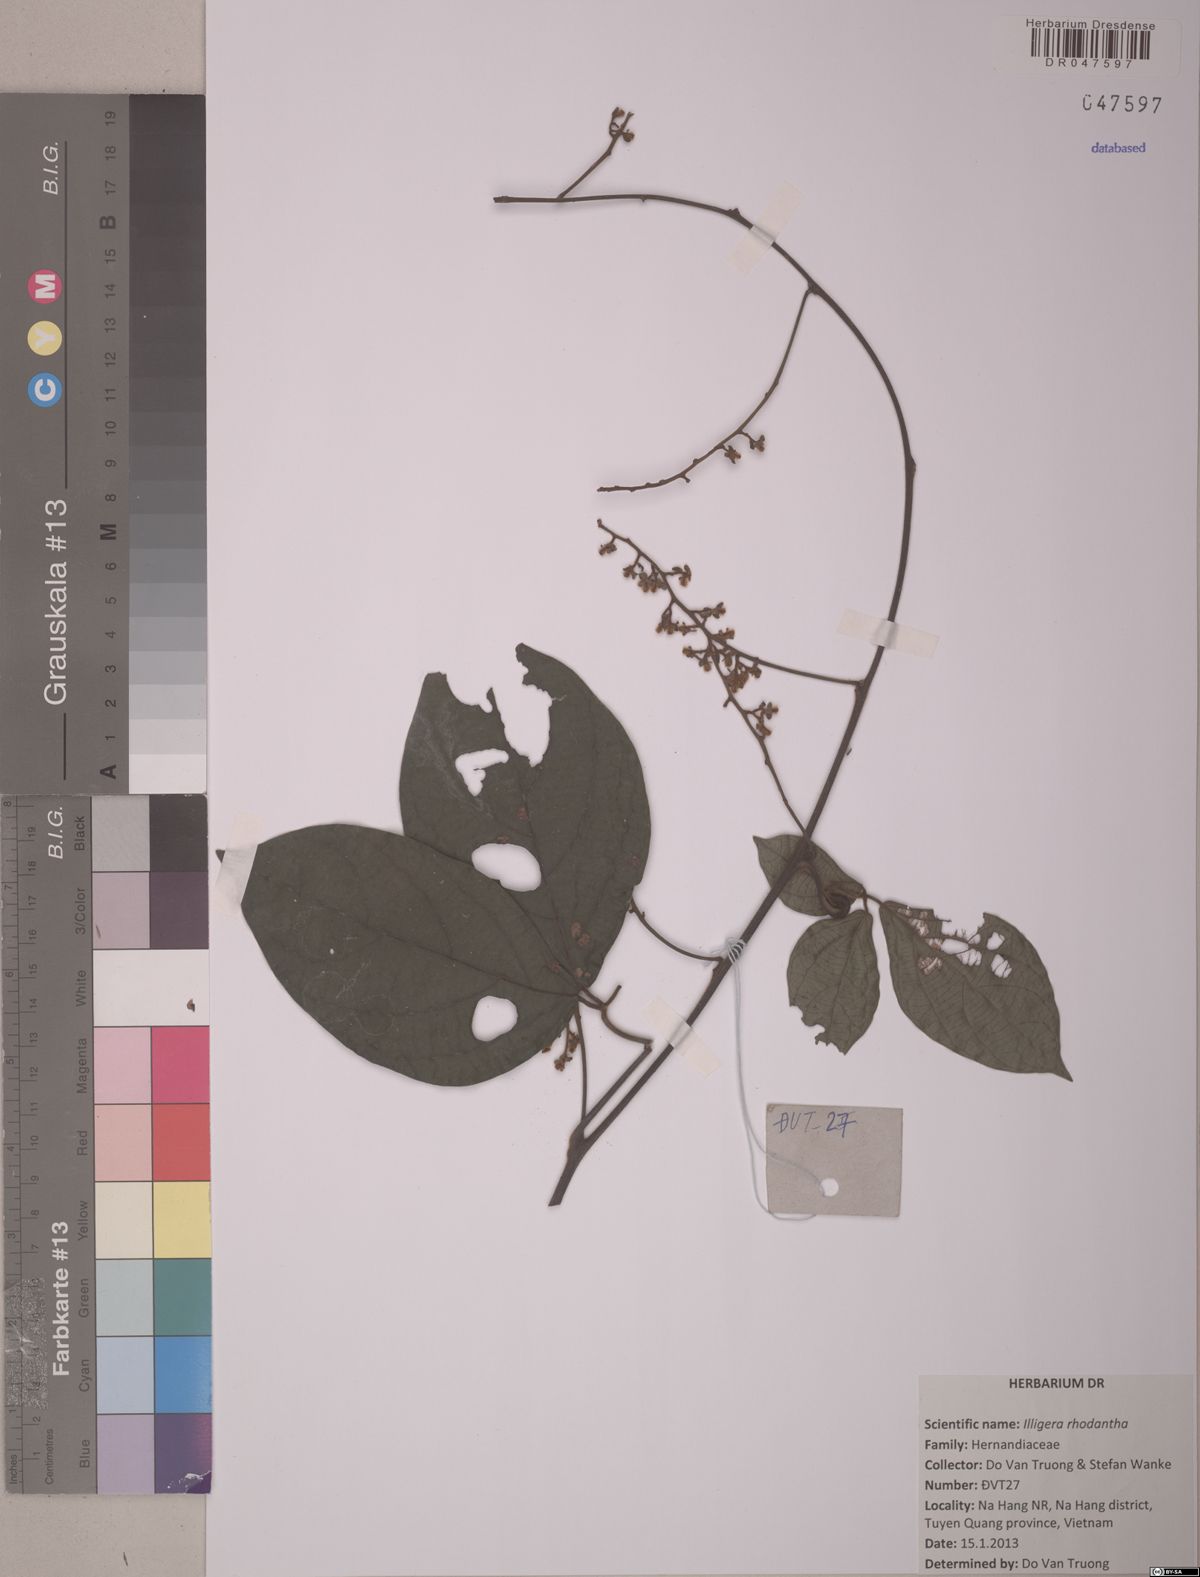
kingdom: Plantae
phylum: Tracheophyta
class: Magnoliopsida
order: Laurales
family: Hernandiaceae
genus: Illigera
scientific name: Illigera rhodantha
